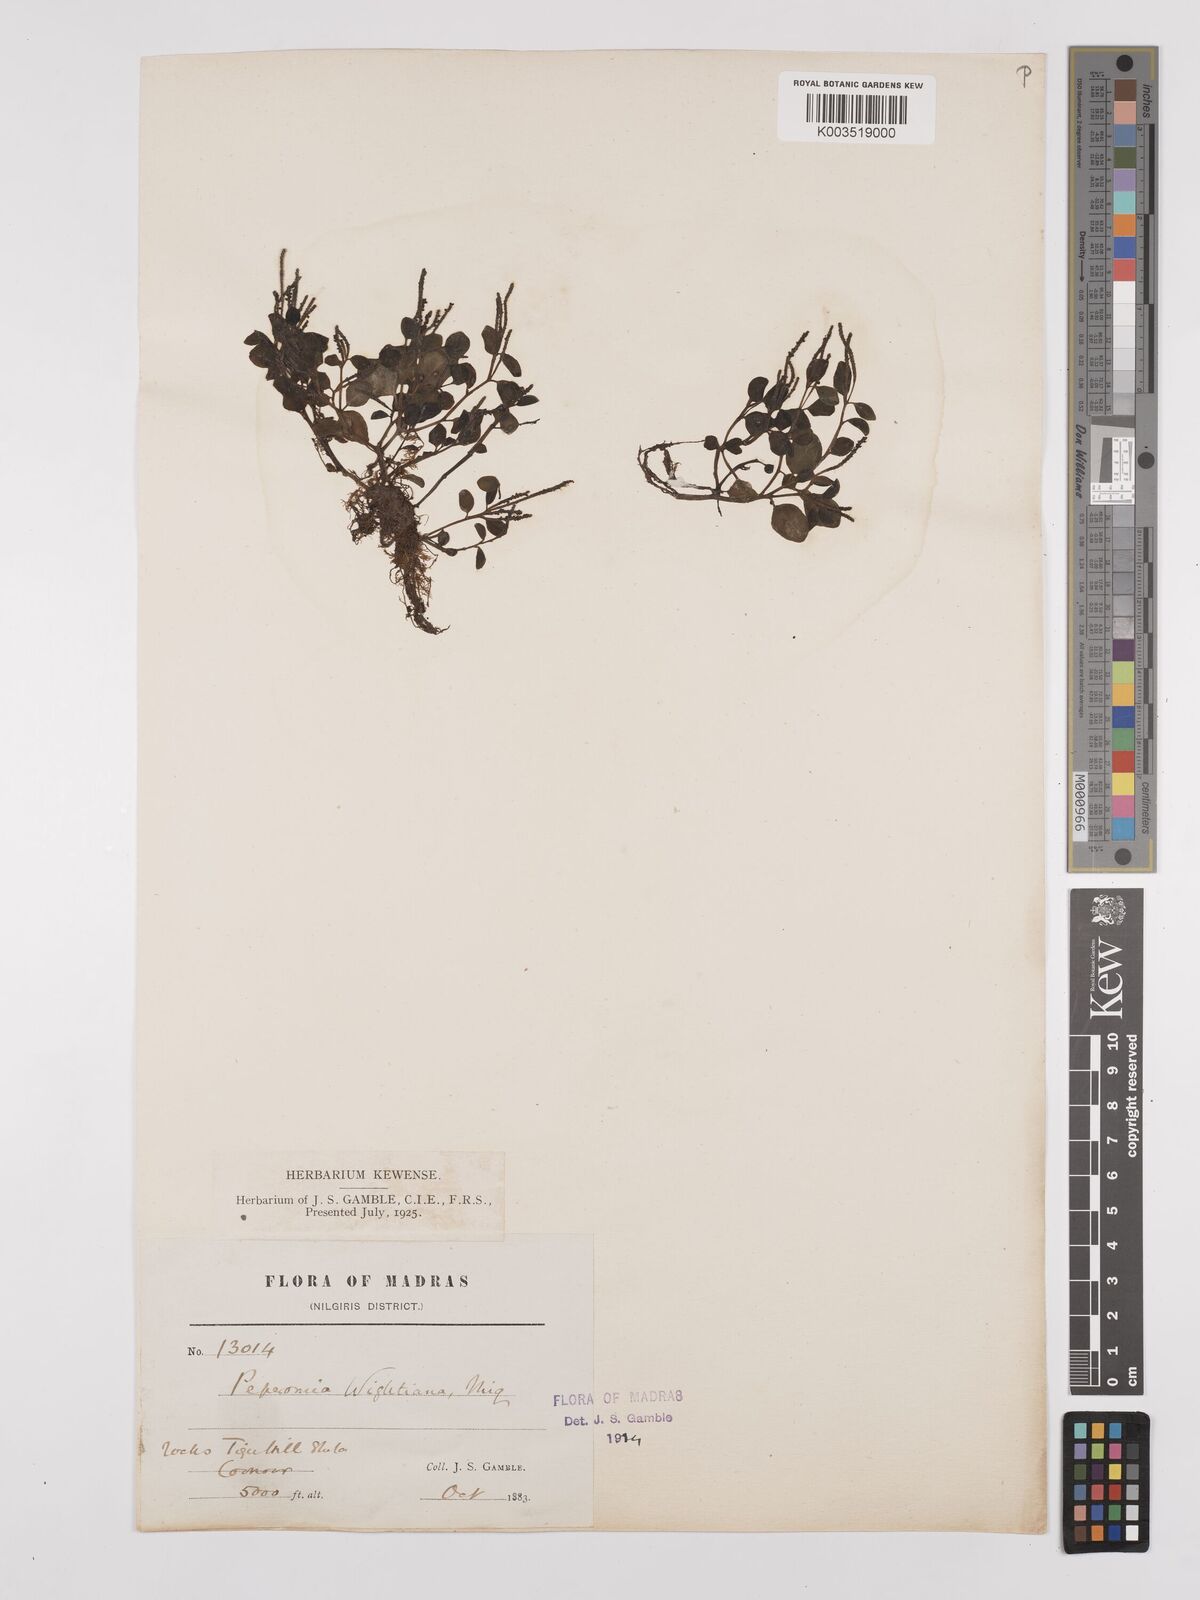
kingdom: Plantae
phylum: Tracheophyta
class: Magnoliopsida
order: Piperales
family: Piperaceae
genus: Peperomia
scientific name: Peperomia wightiana
